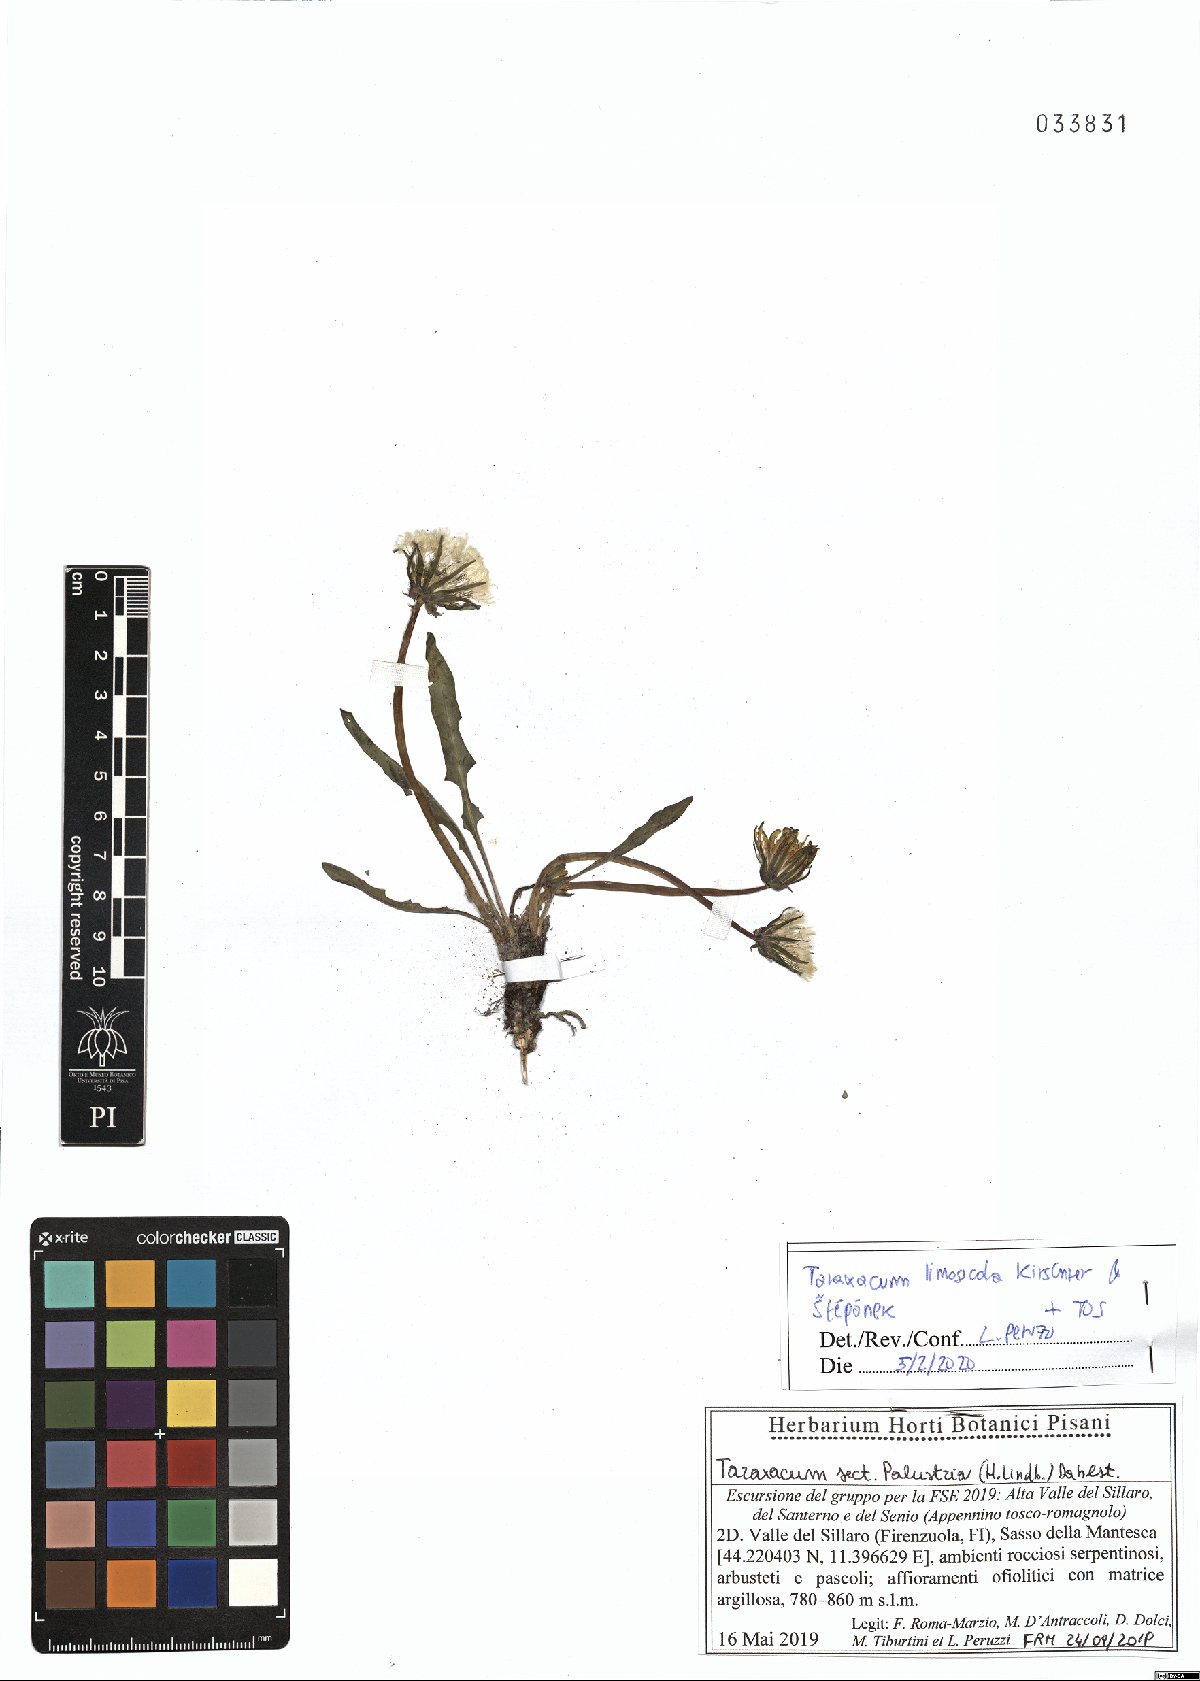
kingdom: Plantae
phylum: Tracheophyta
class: Magnoliopsida
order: Asterales
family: Asteraceae
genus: Taraxacum
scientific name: Taraxacum limosicola
